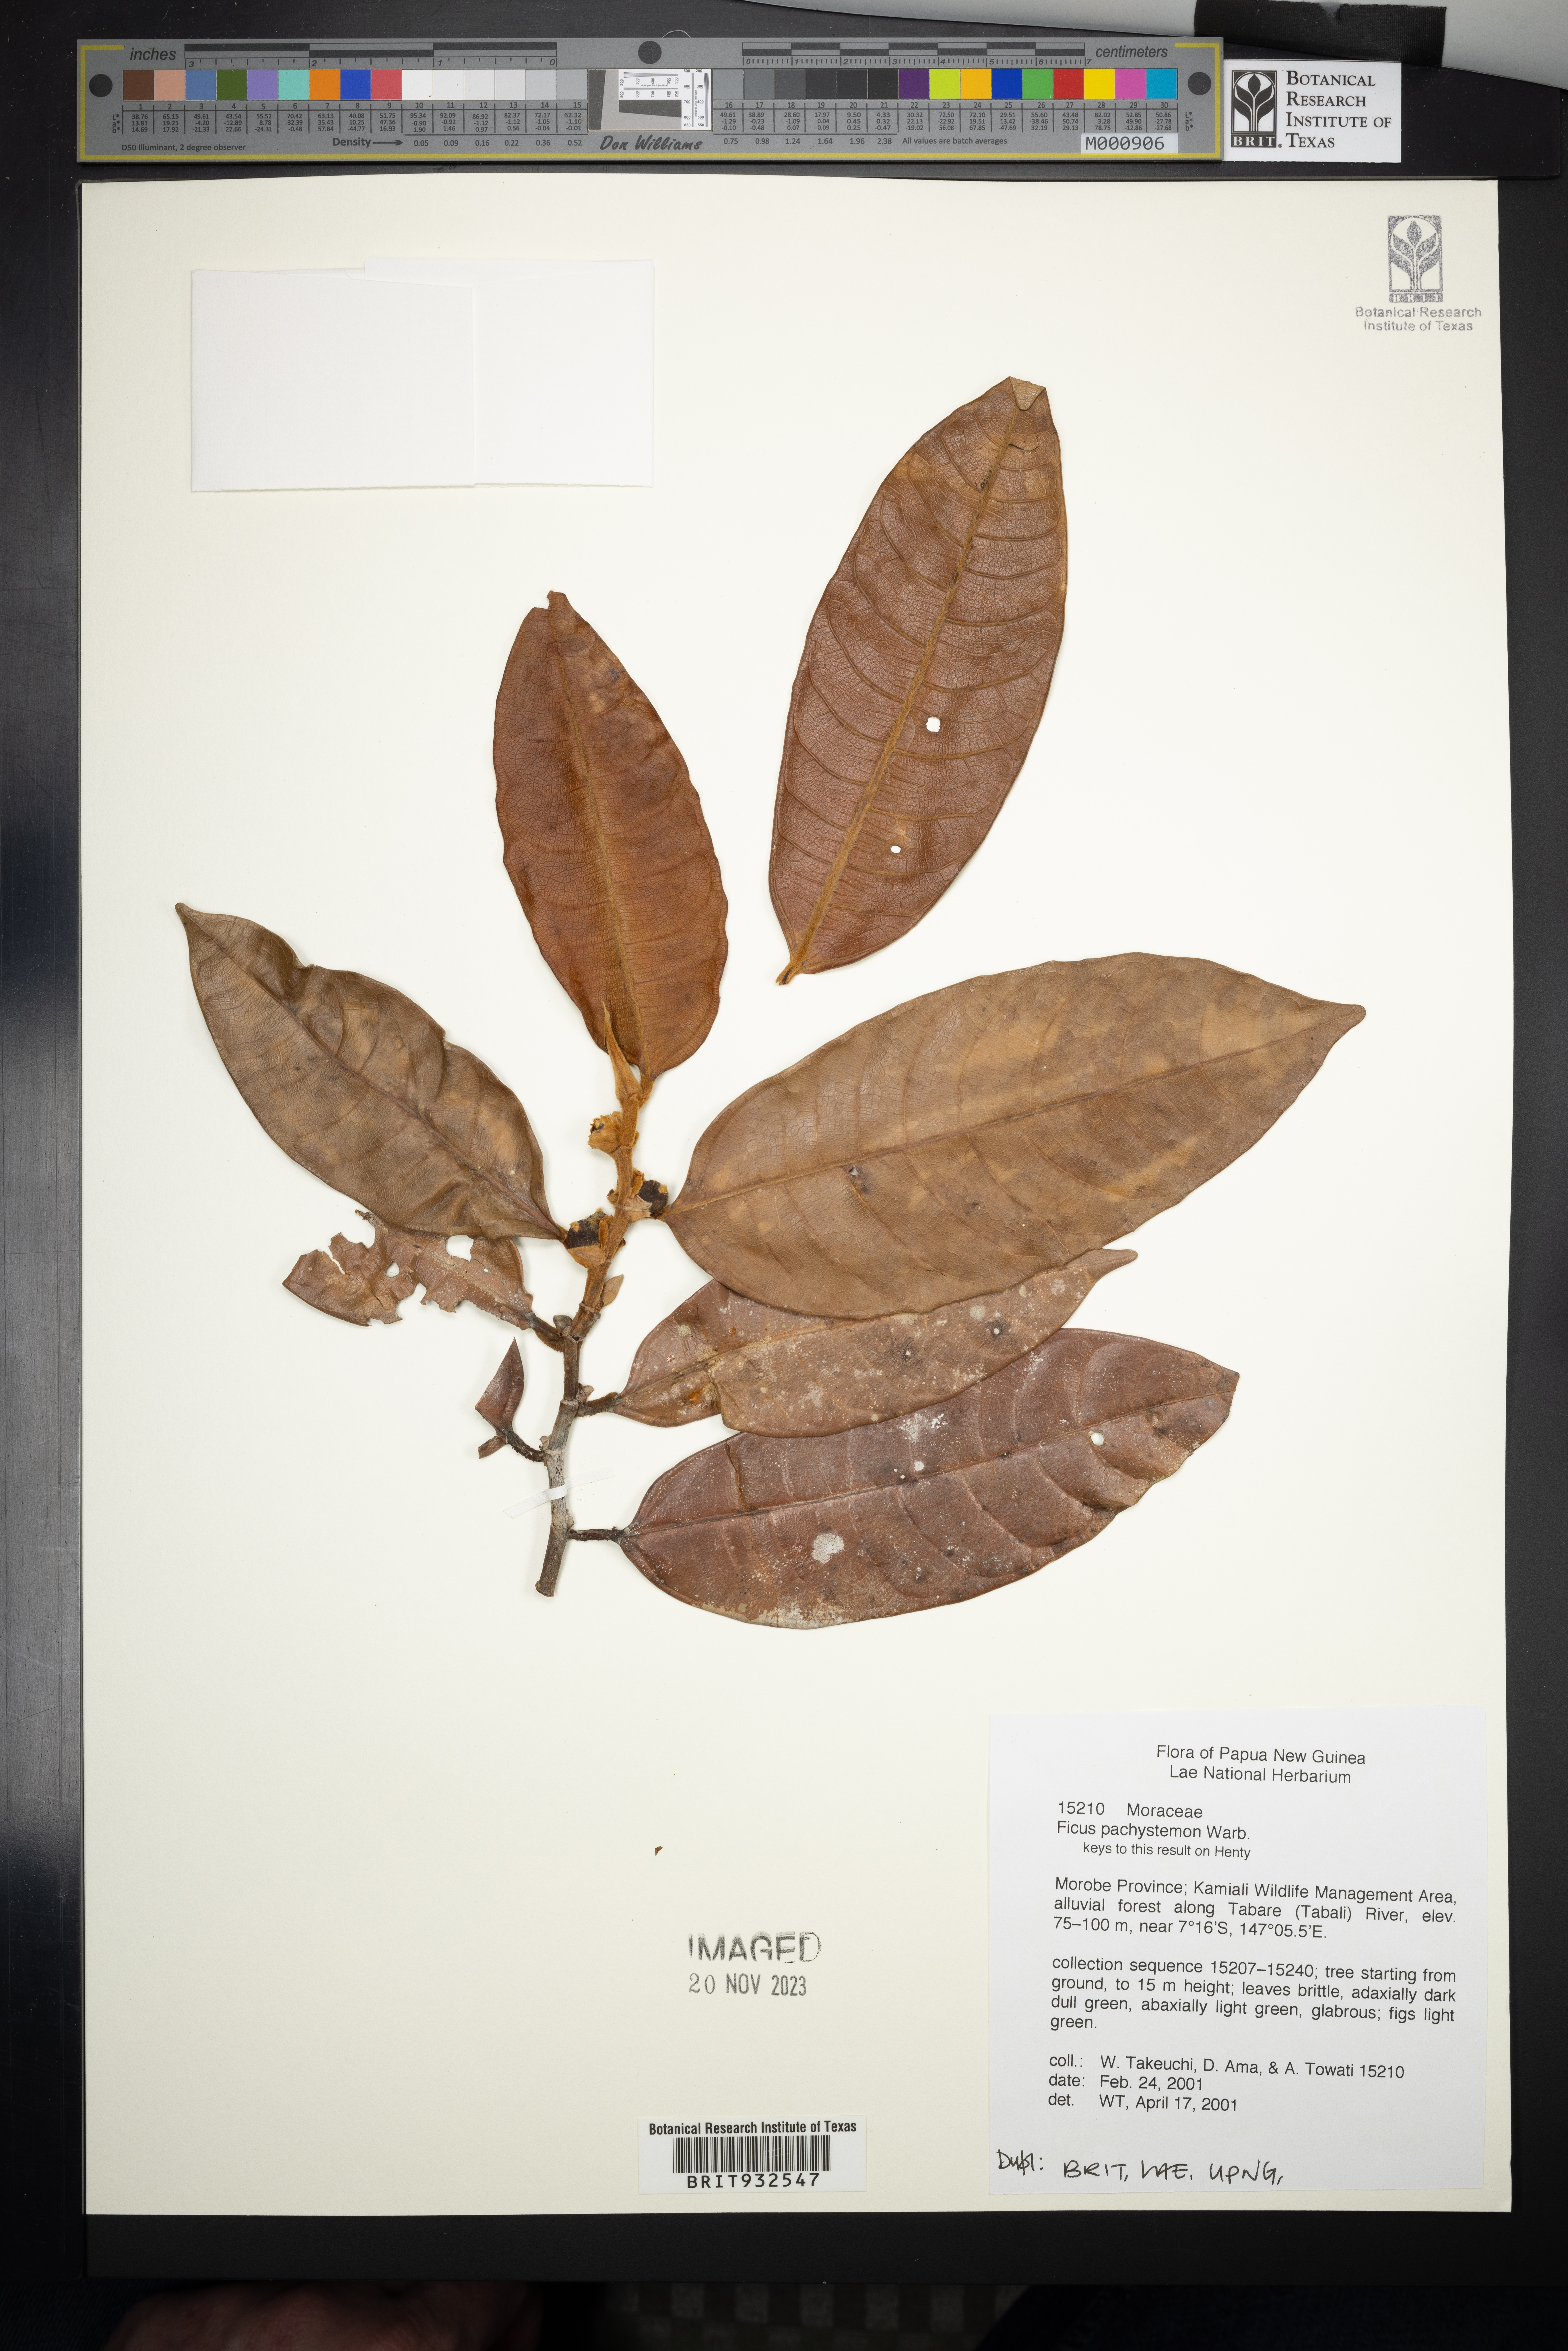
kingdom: Plantae
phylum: Tracheophyta
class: Magnoliopsida
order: Rosales
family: Moraceae
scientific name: Moraceae
